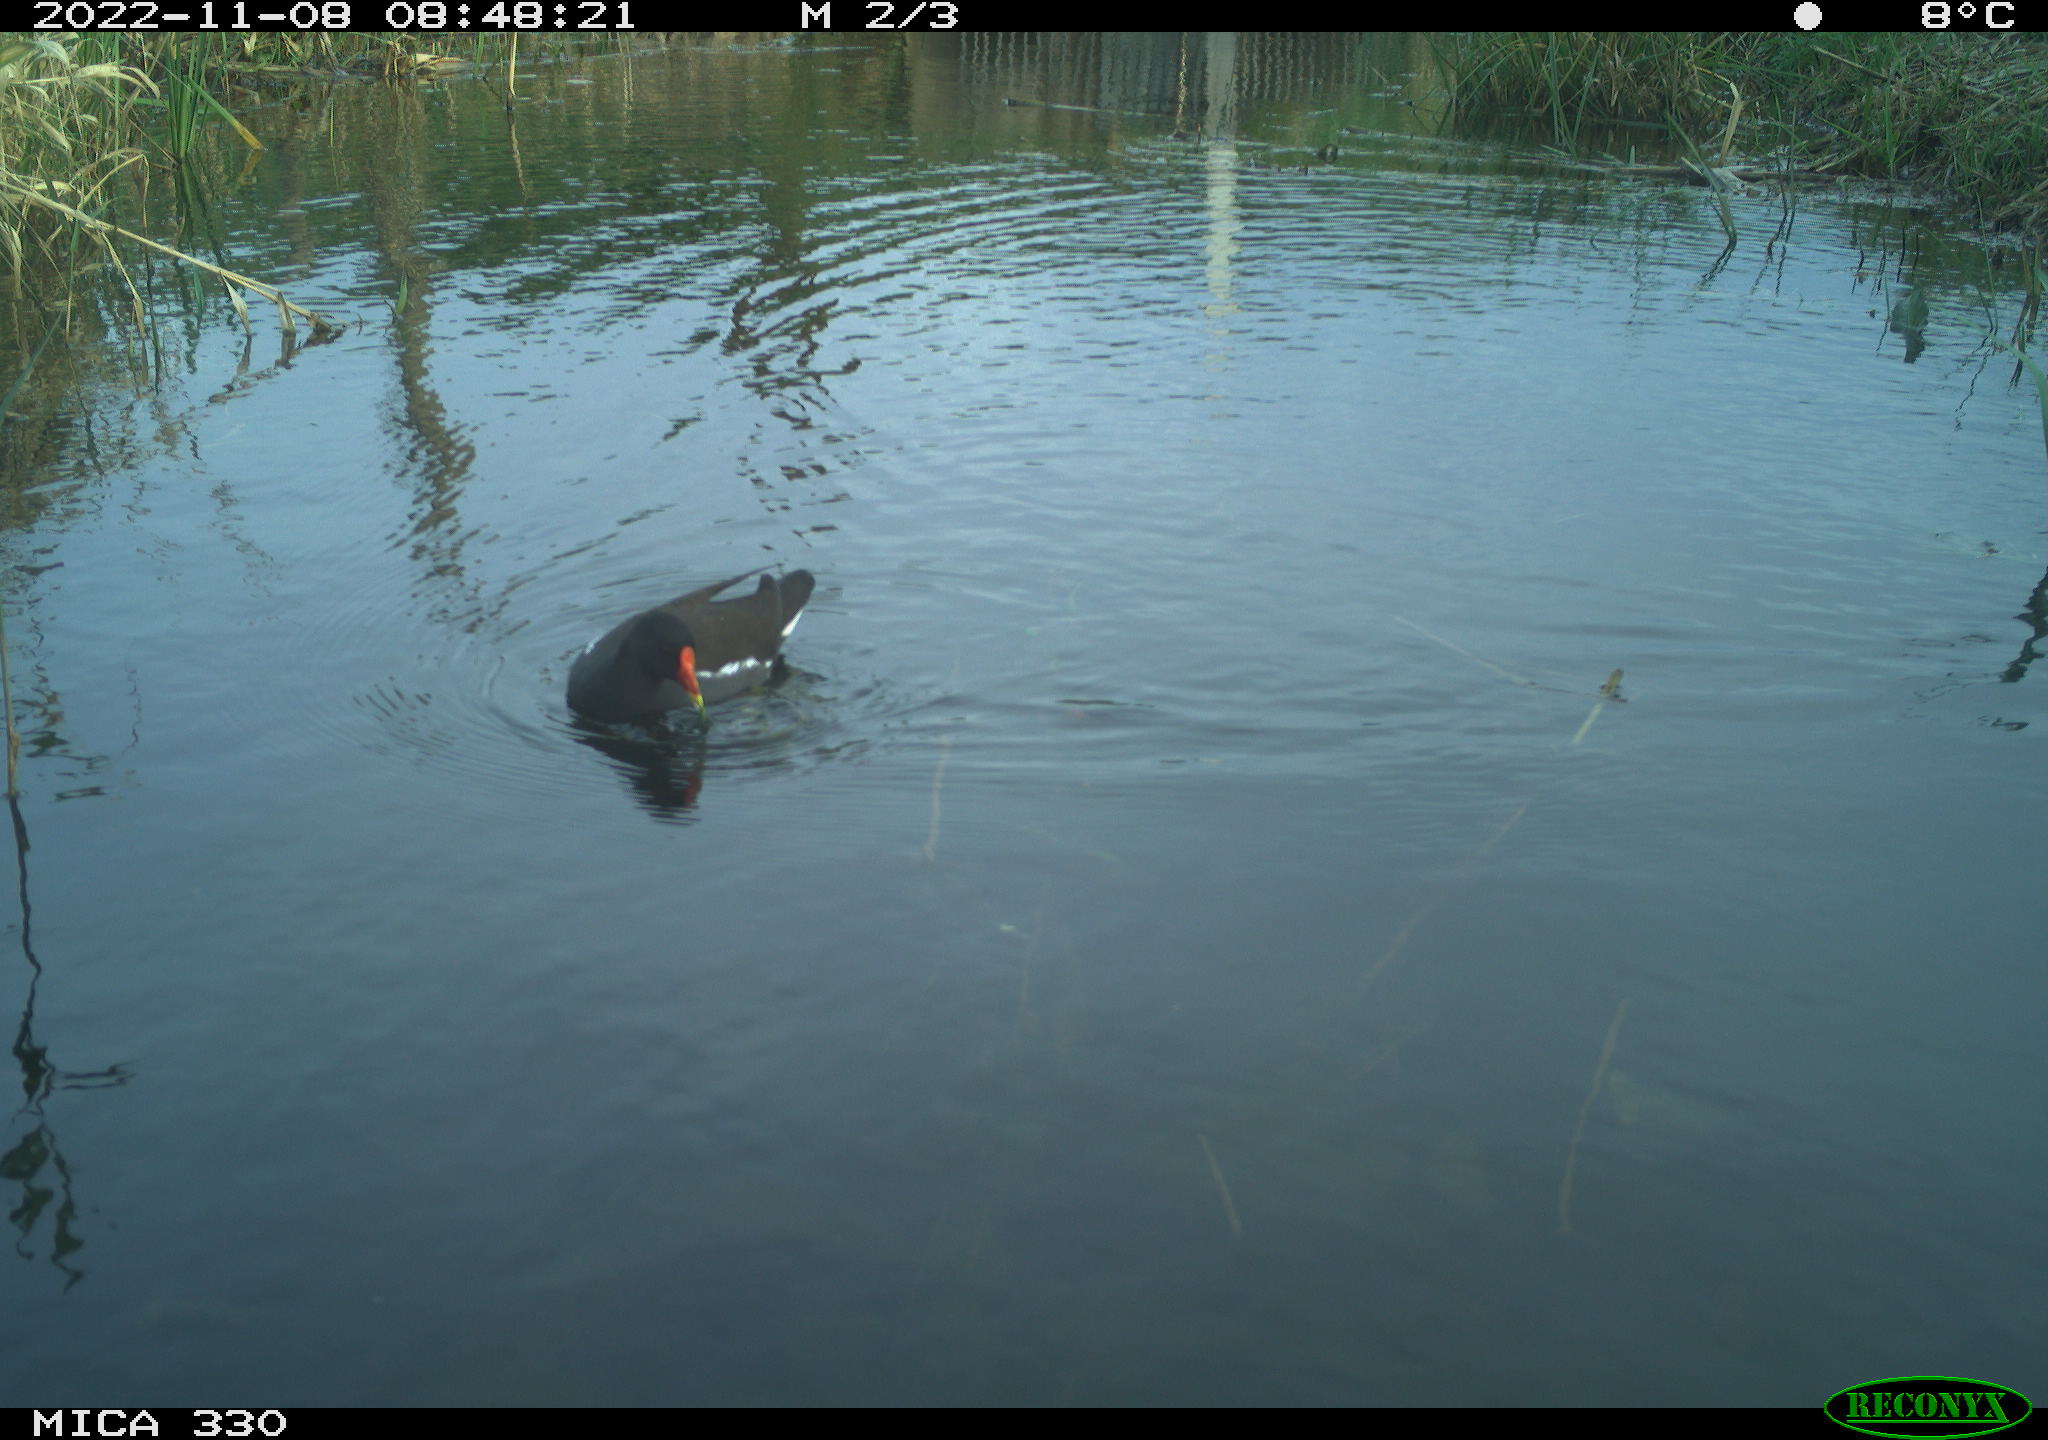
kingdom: Animalia
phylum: Chordata
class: Aves
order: Gruiformes
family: Rallidae
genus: Gallinula
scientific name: Gallinula chloropus
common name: Common moorhen
